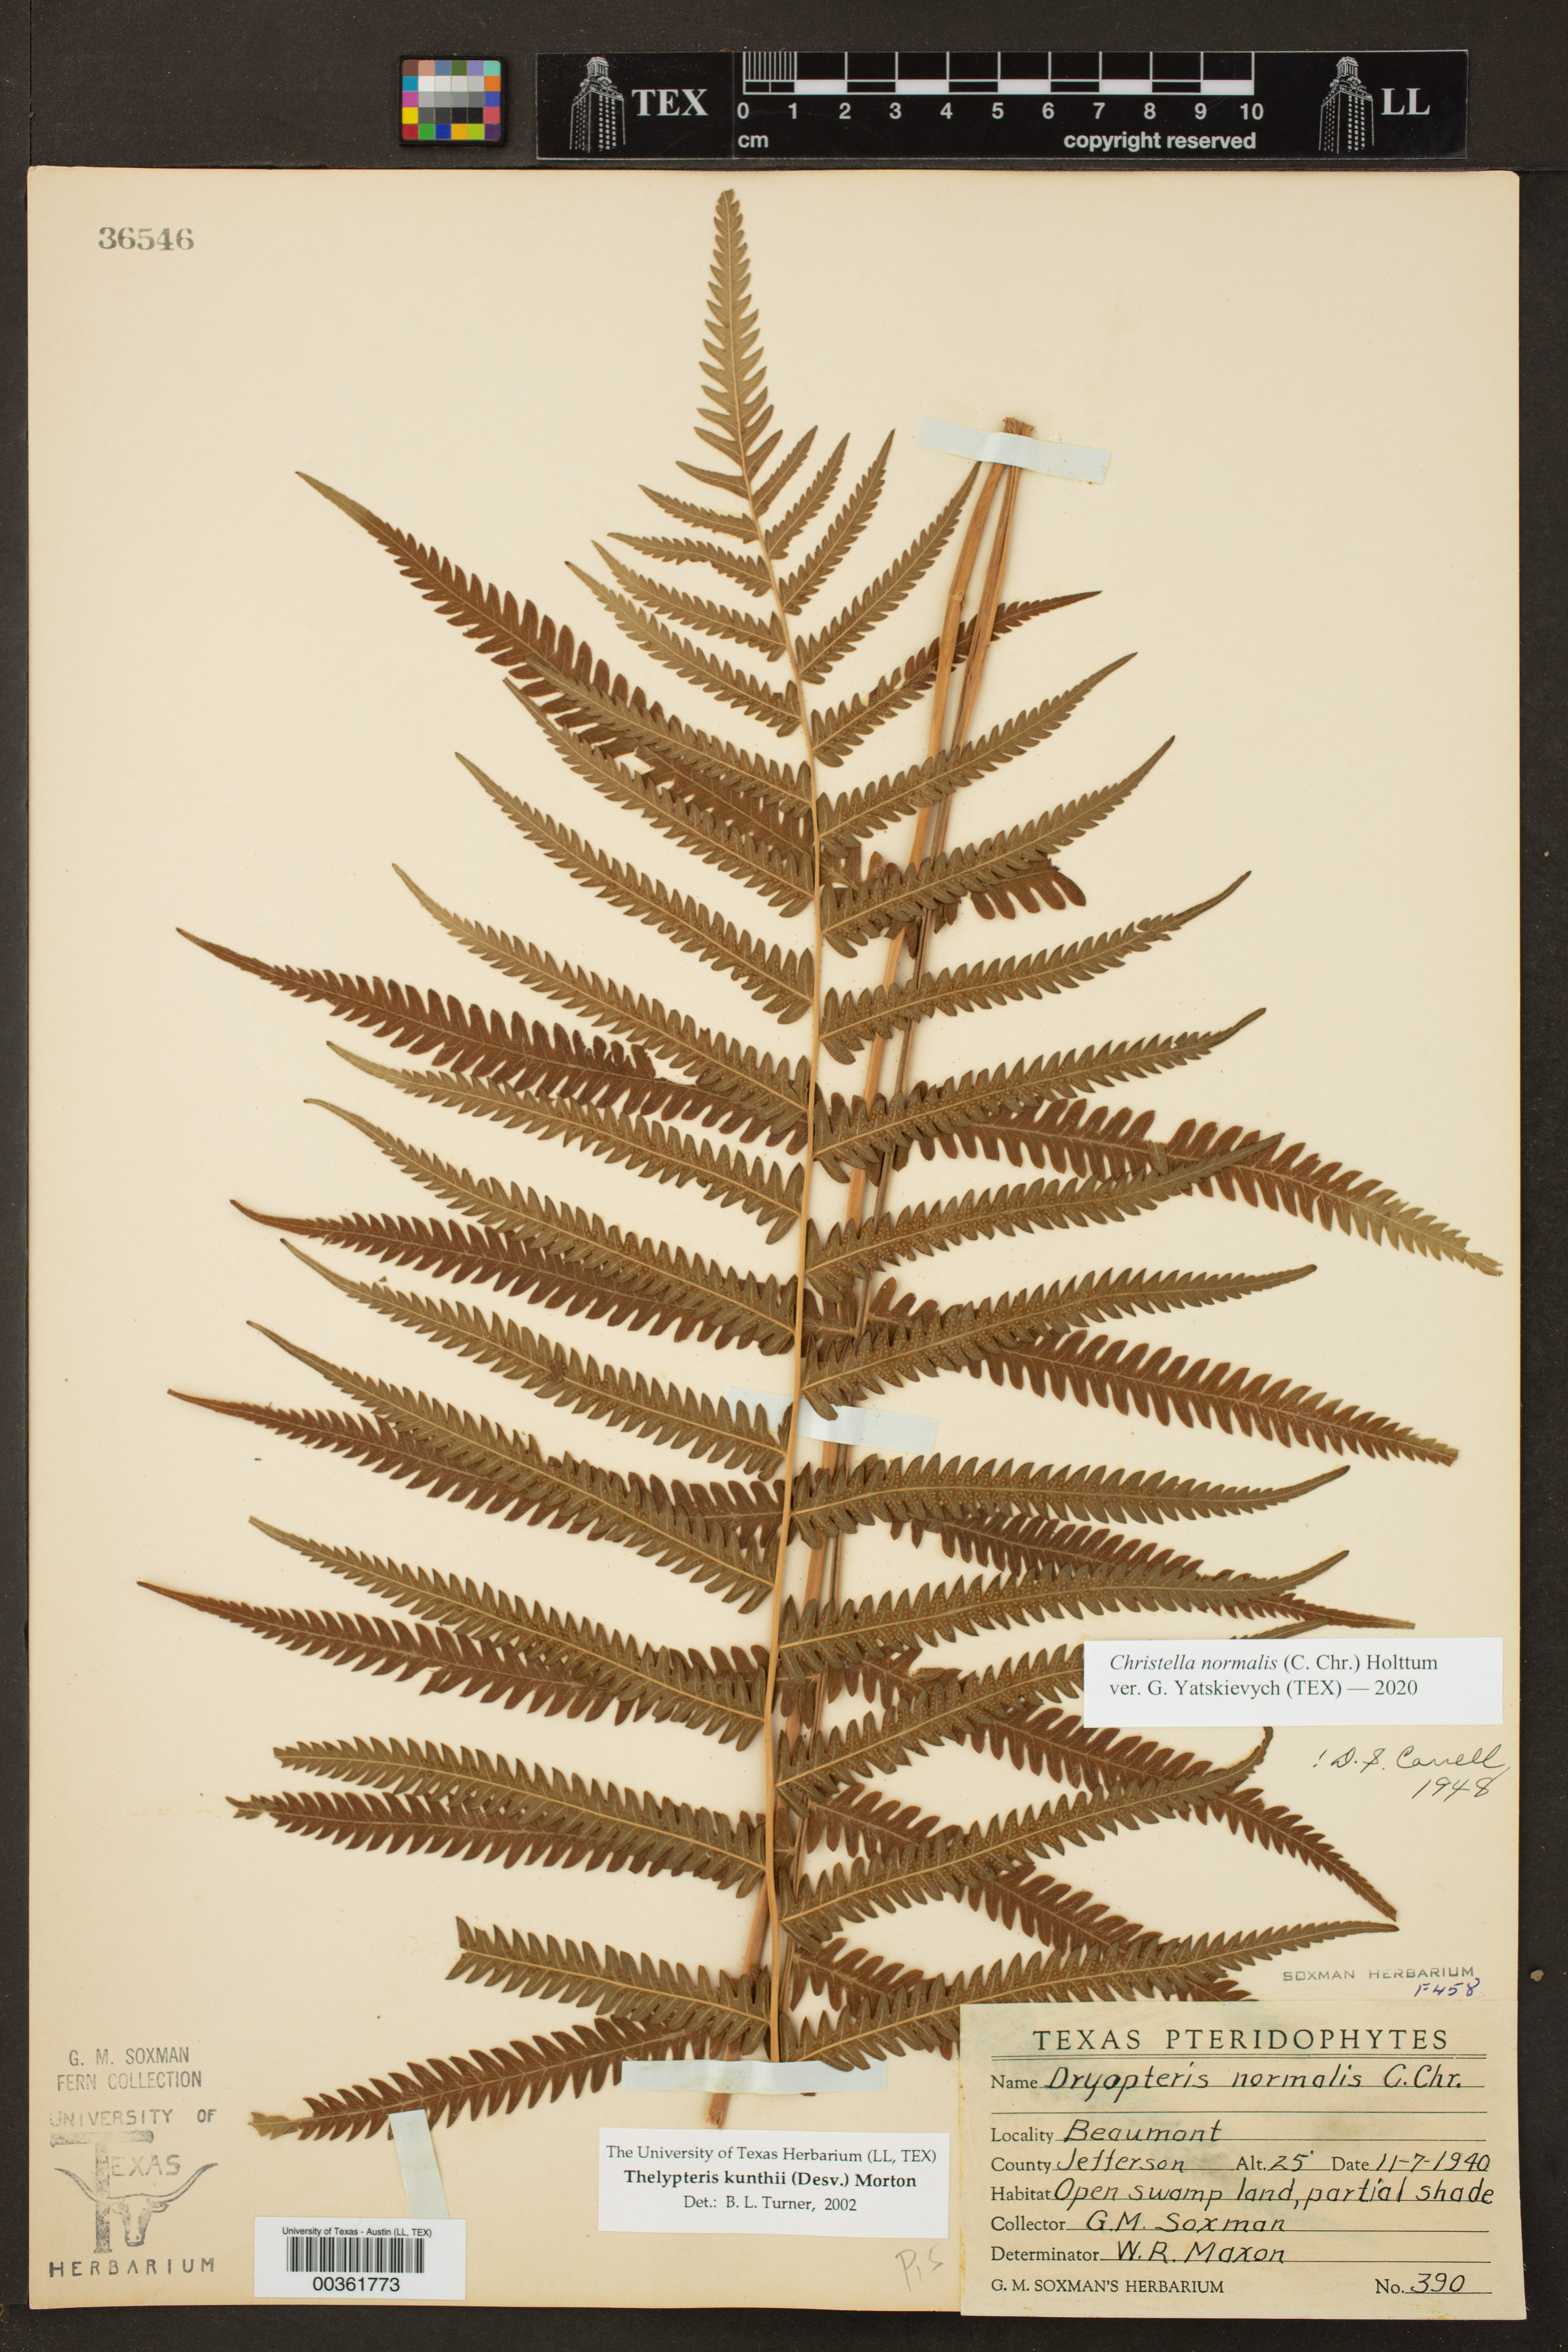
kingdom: Plantae
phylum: Tracheophyta
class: Polypodiopsida
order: Polypodiales
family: Thelypteridaceae
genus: Pelazoneuron
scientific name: Pelazoneuron kunthii
